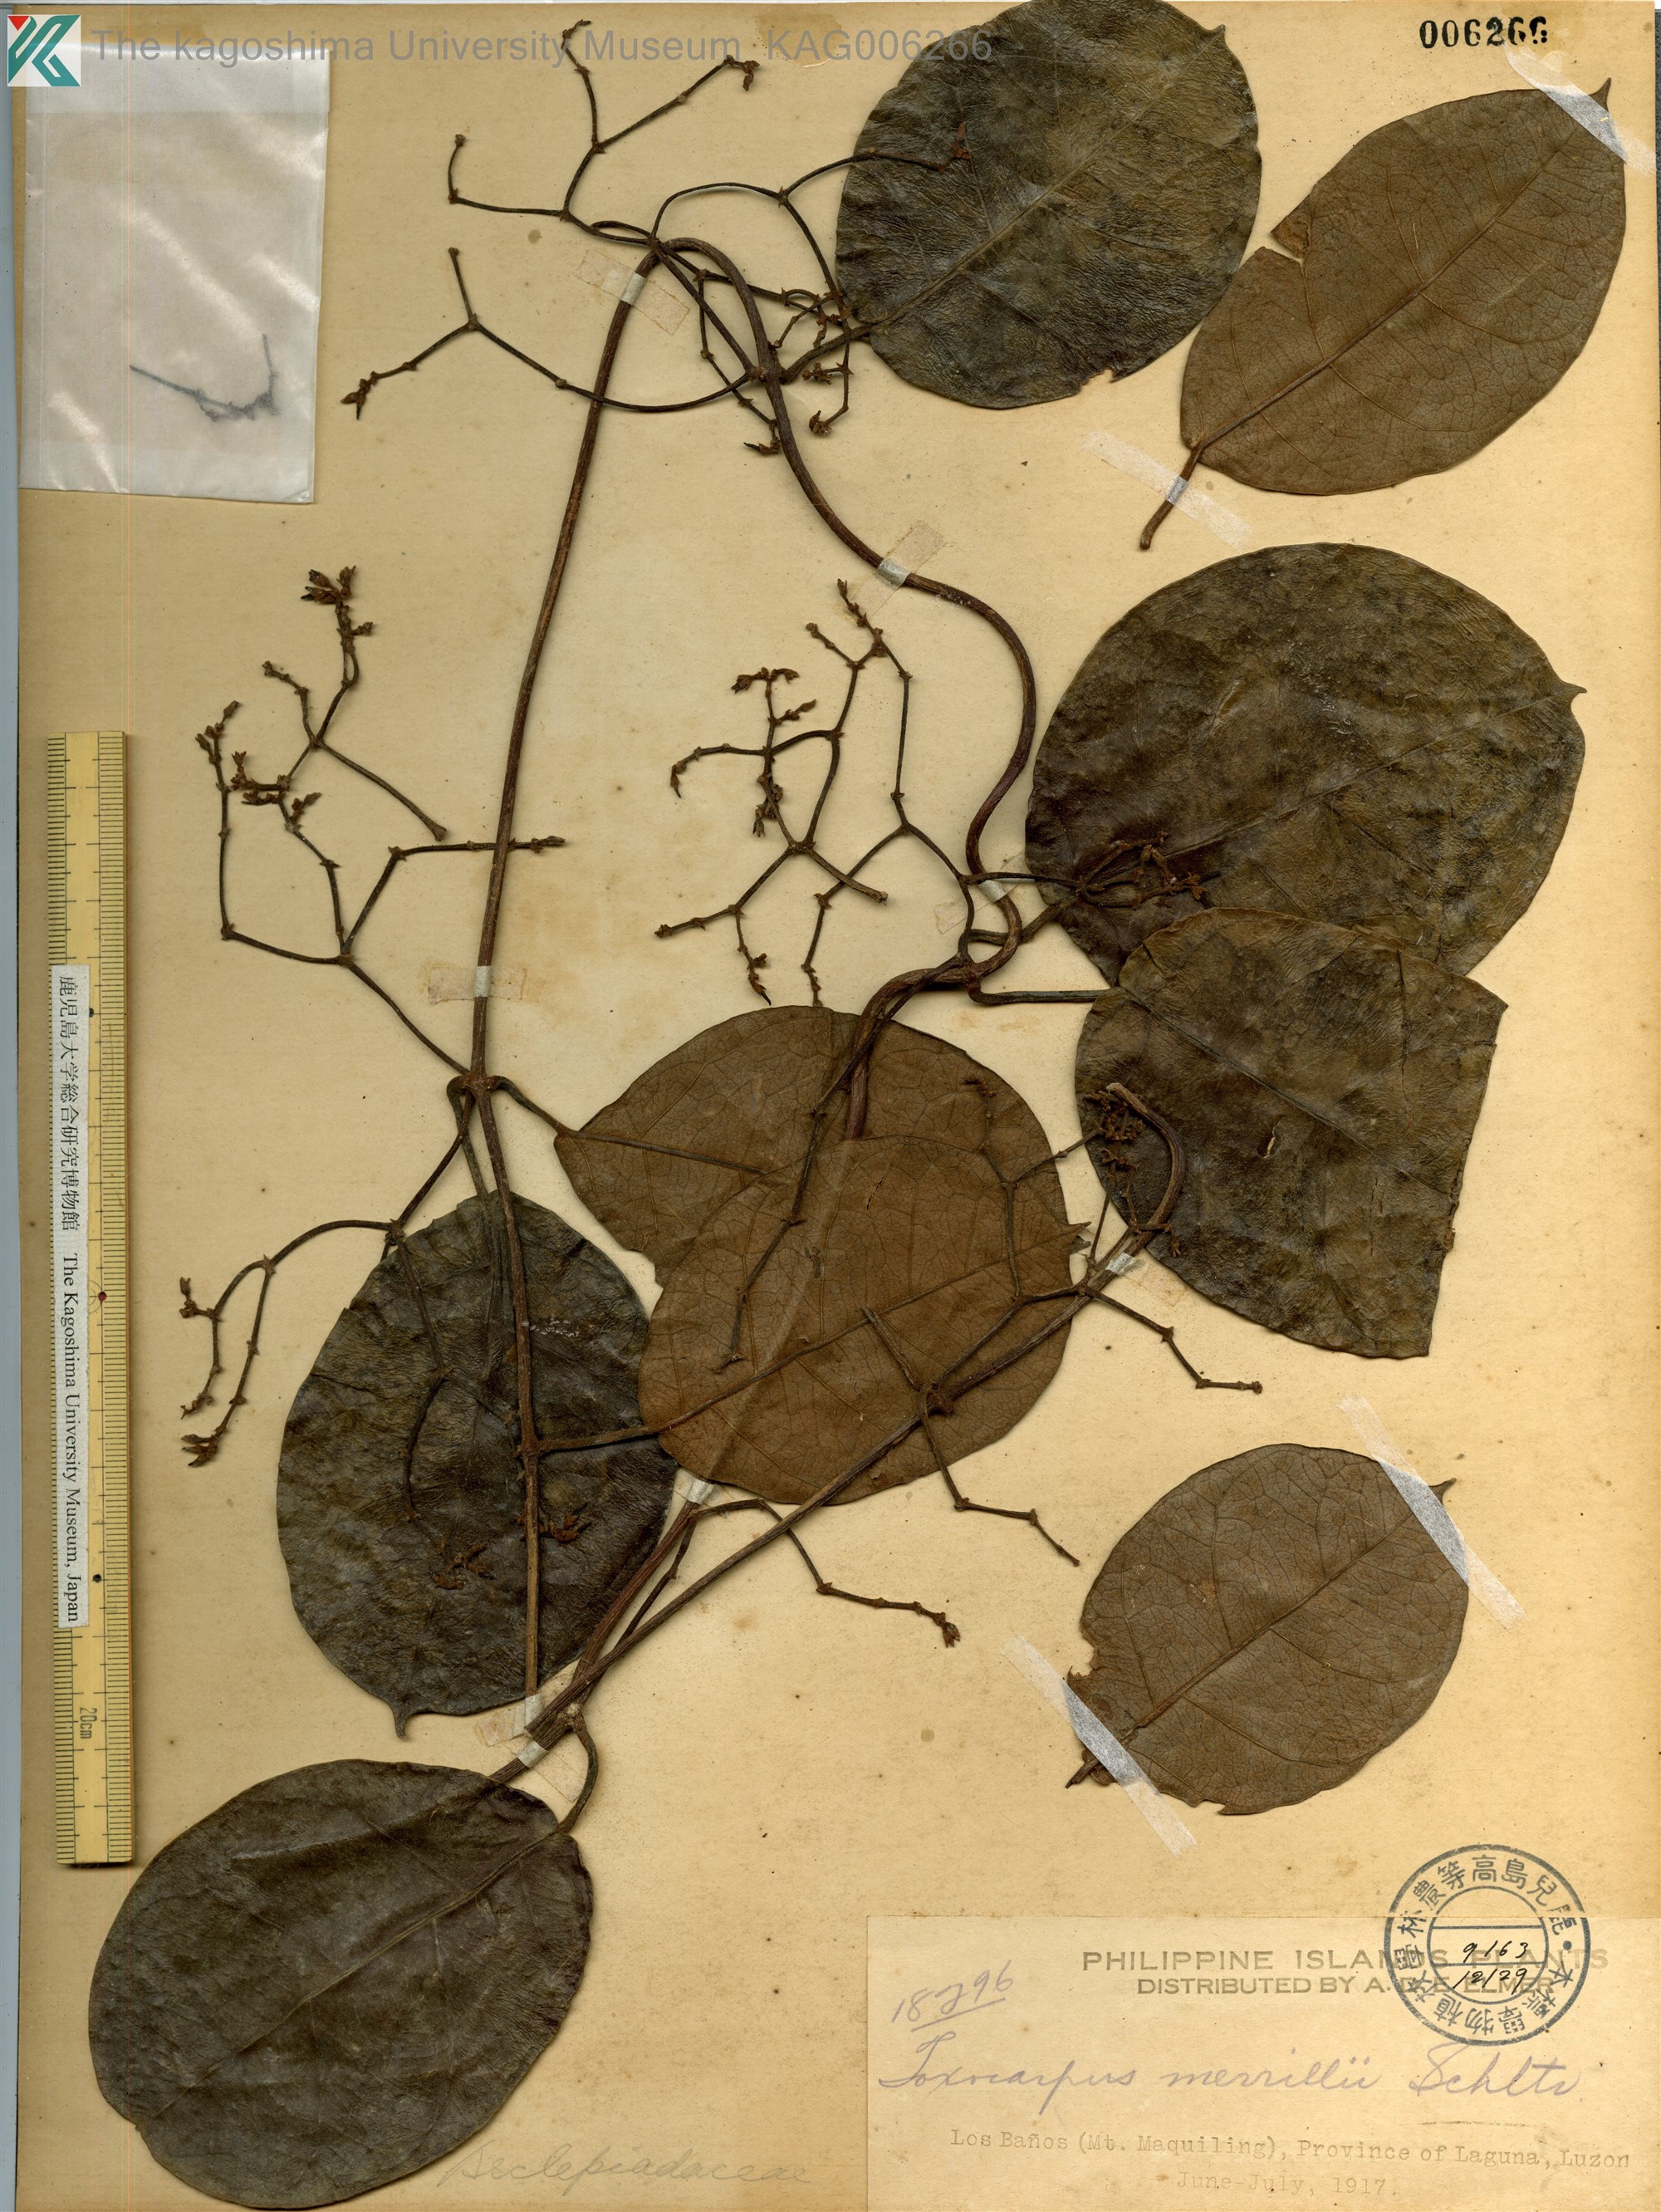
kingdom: Plantae
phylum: Tracheophyta
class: Magnoliopsida
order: Gentianales
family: Apocynaceae
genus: Toxocarpus
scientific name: Toxocarpus merrillii
